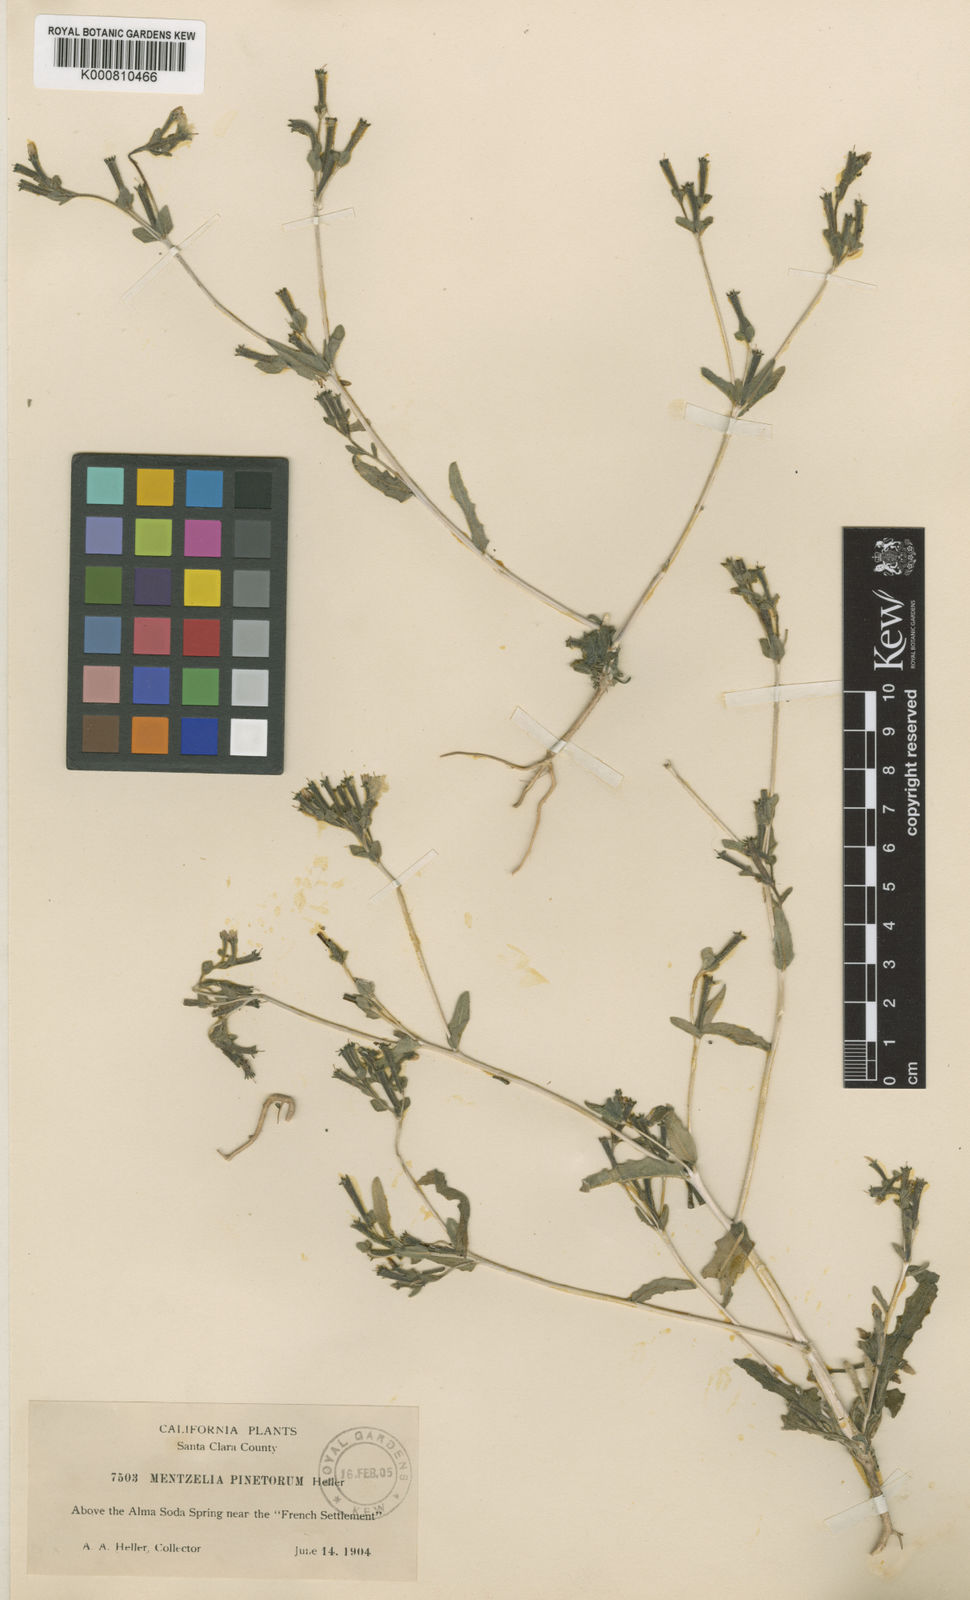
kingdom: Plantae
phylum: Tracheophyta
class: Magnoliopsida
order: Cornales
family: Loasaceae
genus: Mentzelia
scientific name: Mentzelia dispersa
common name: Nada stickleaf
